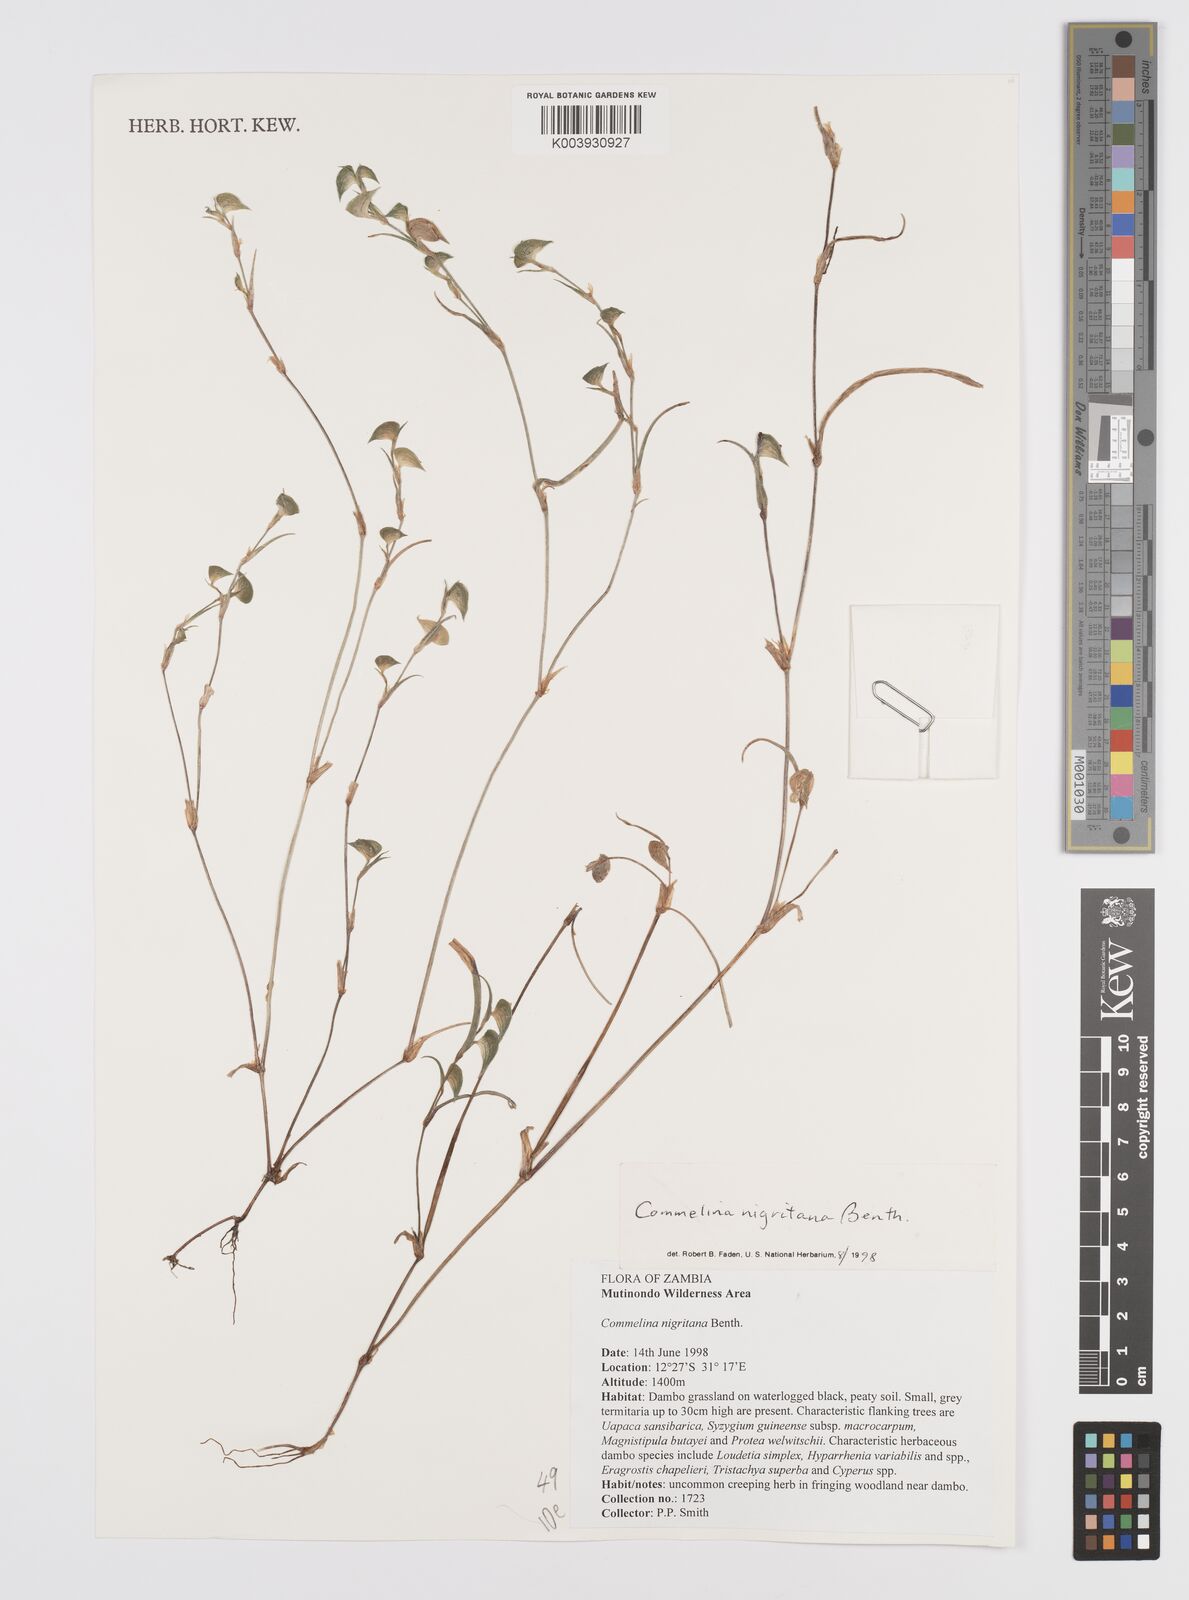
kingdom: Plantae
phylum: Tracheophyta
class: Liliopsida
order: Commelinales
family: Commelinaceae
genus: Commelina
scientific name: Commelina nigritana
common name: African dayflower
